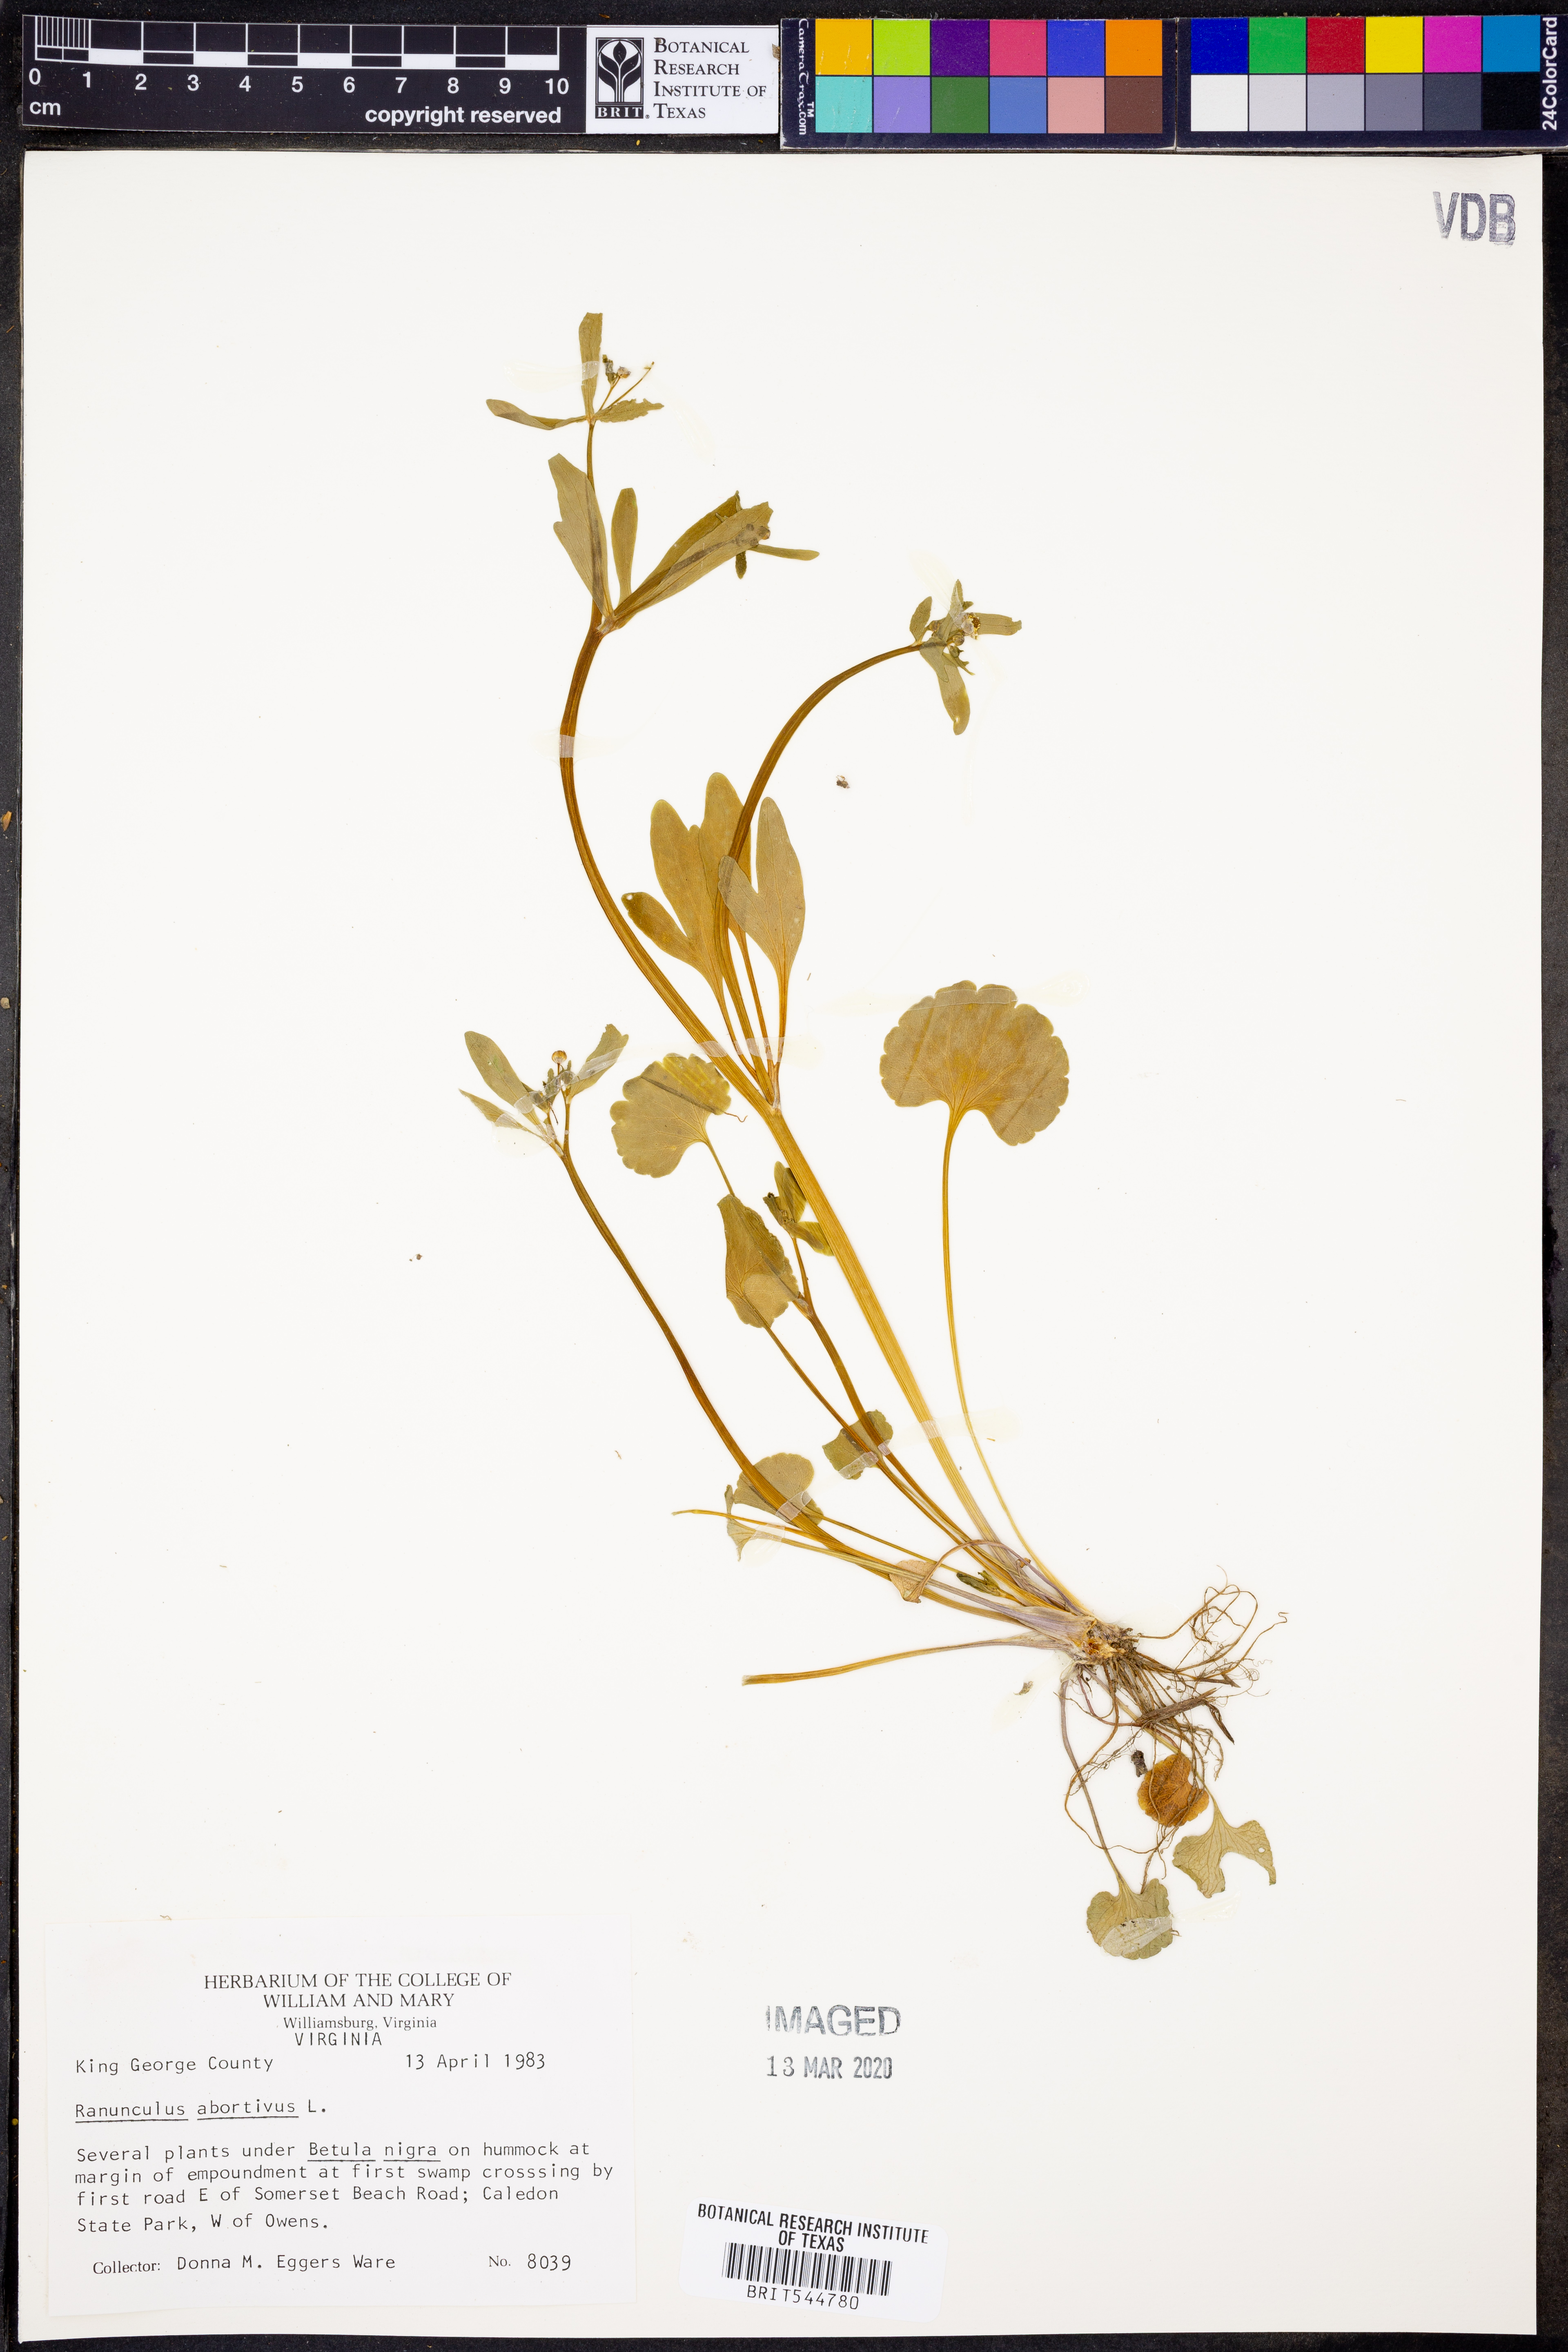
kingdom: Plantae
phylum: Tracheophyta
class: Magnoliopsida
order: Ranunculales
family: Ranunculaceae
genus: Ranunculus
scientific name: Ranunculus abortivus
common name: Early wood buttercup
